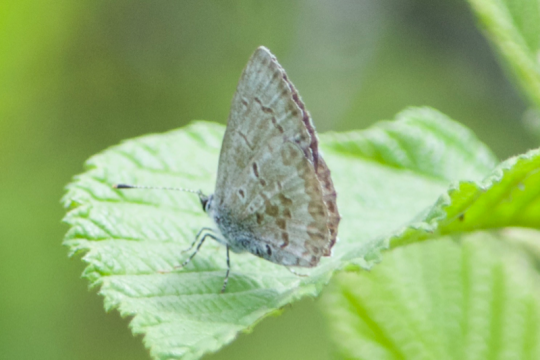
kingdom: Animalia
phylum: Arthropoda
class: Insecta
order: Lepidoptera
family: Lycaenidae
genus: Celastrina
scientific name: Celastrina serotina
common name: Cherry Gall Azure
